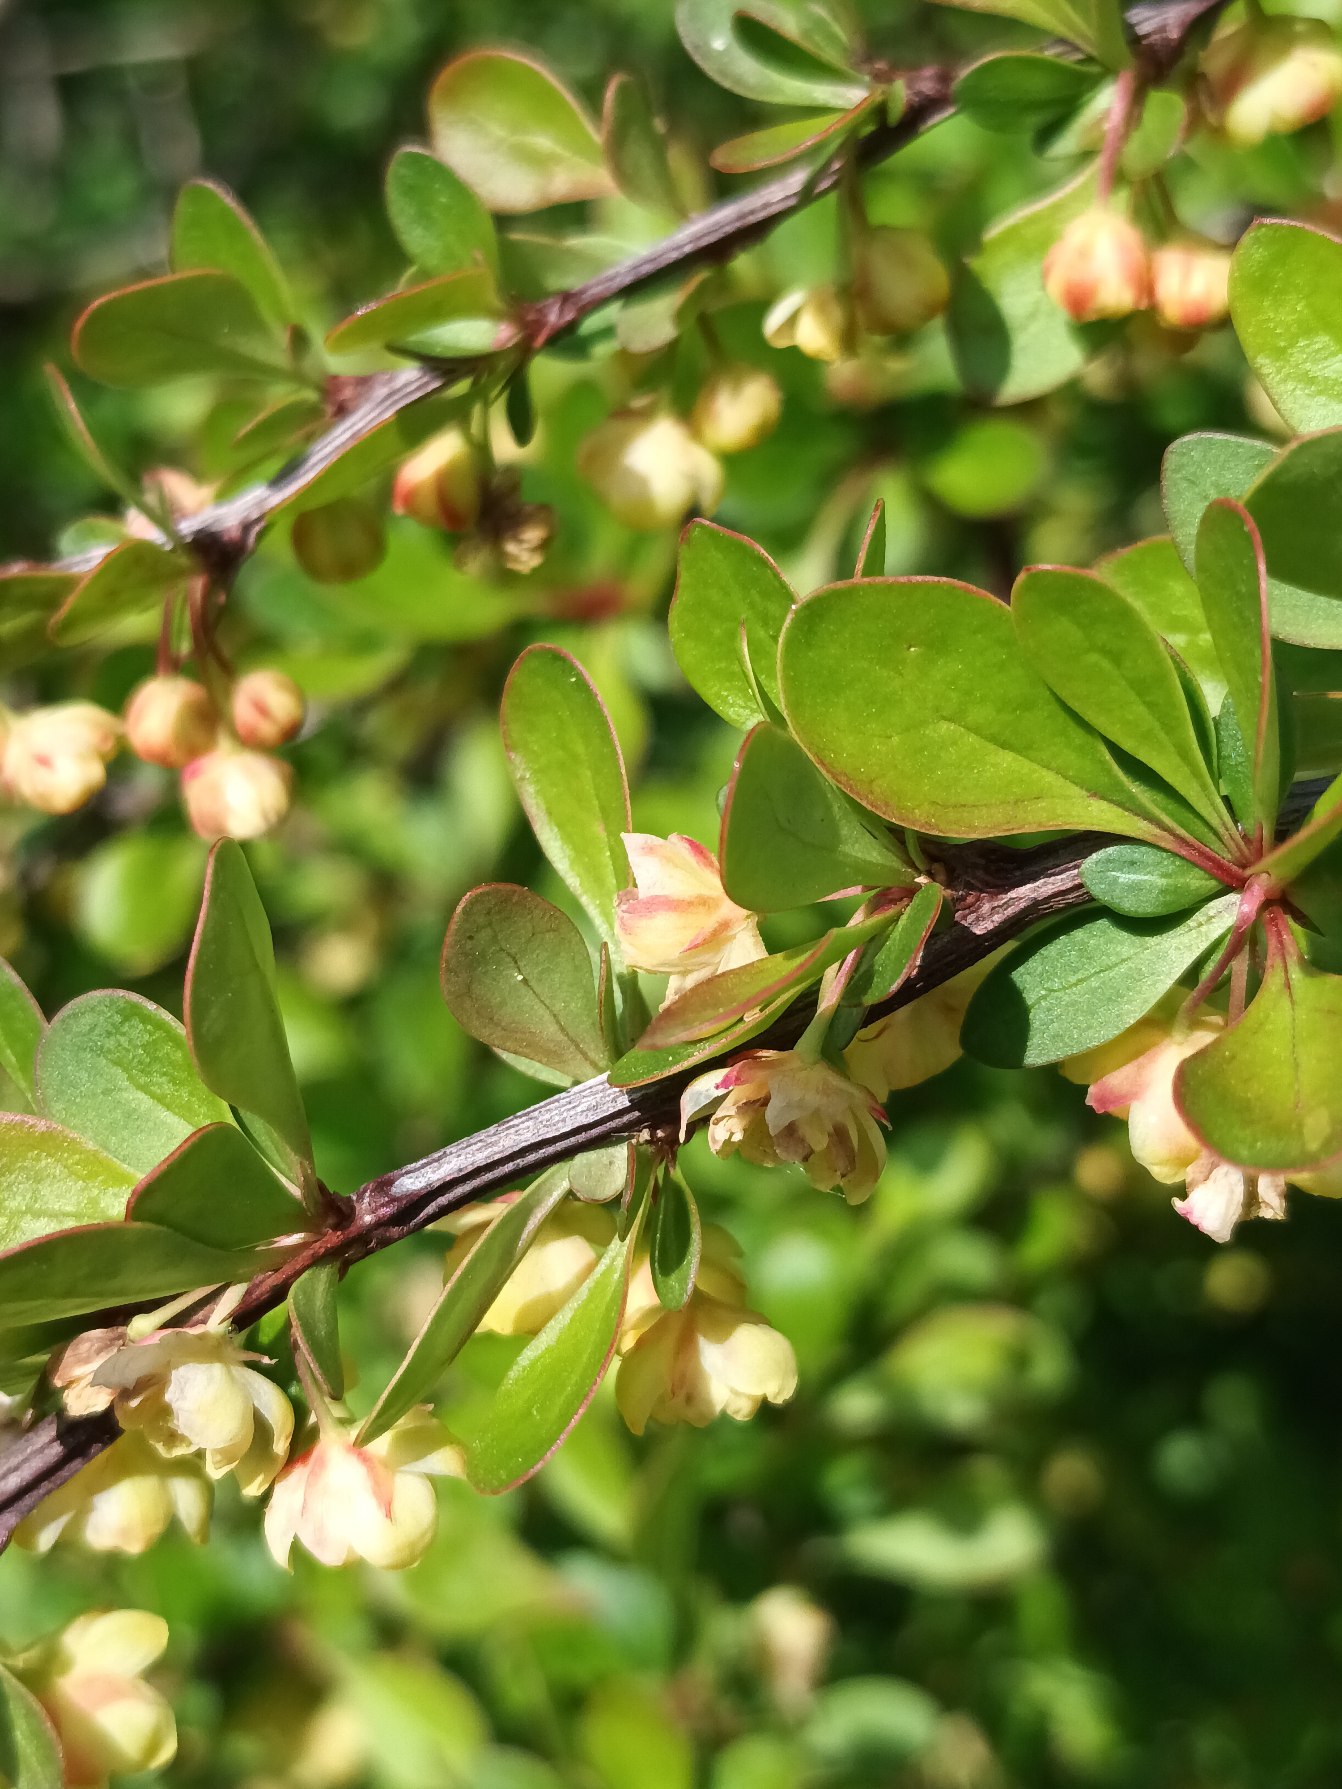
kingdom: Plantae
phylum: Tracheophyta
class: Magnoliopsida
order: Ranunculales
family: Berberidaceae
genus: Berberis
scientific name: Berberis thunbergii
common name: Hæk-berberis
